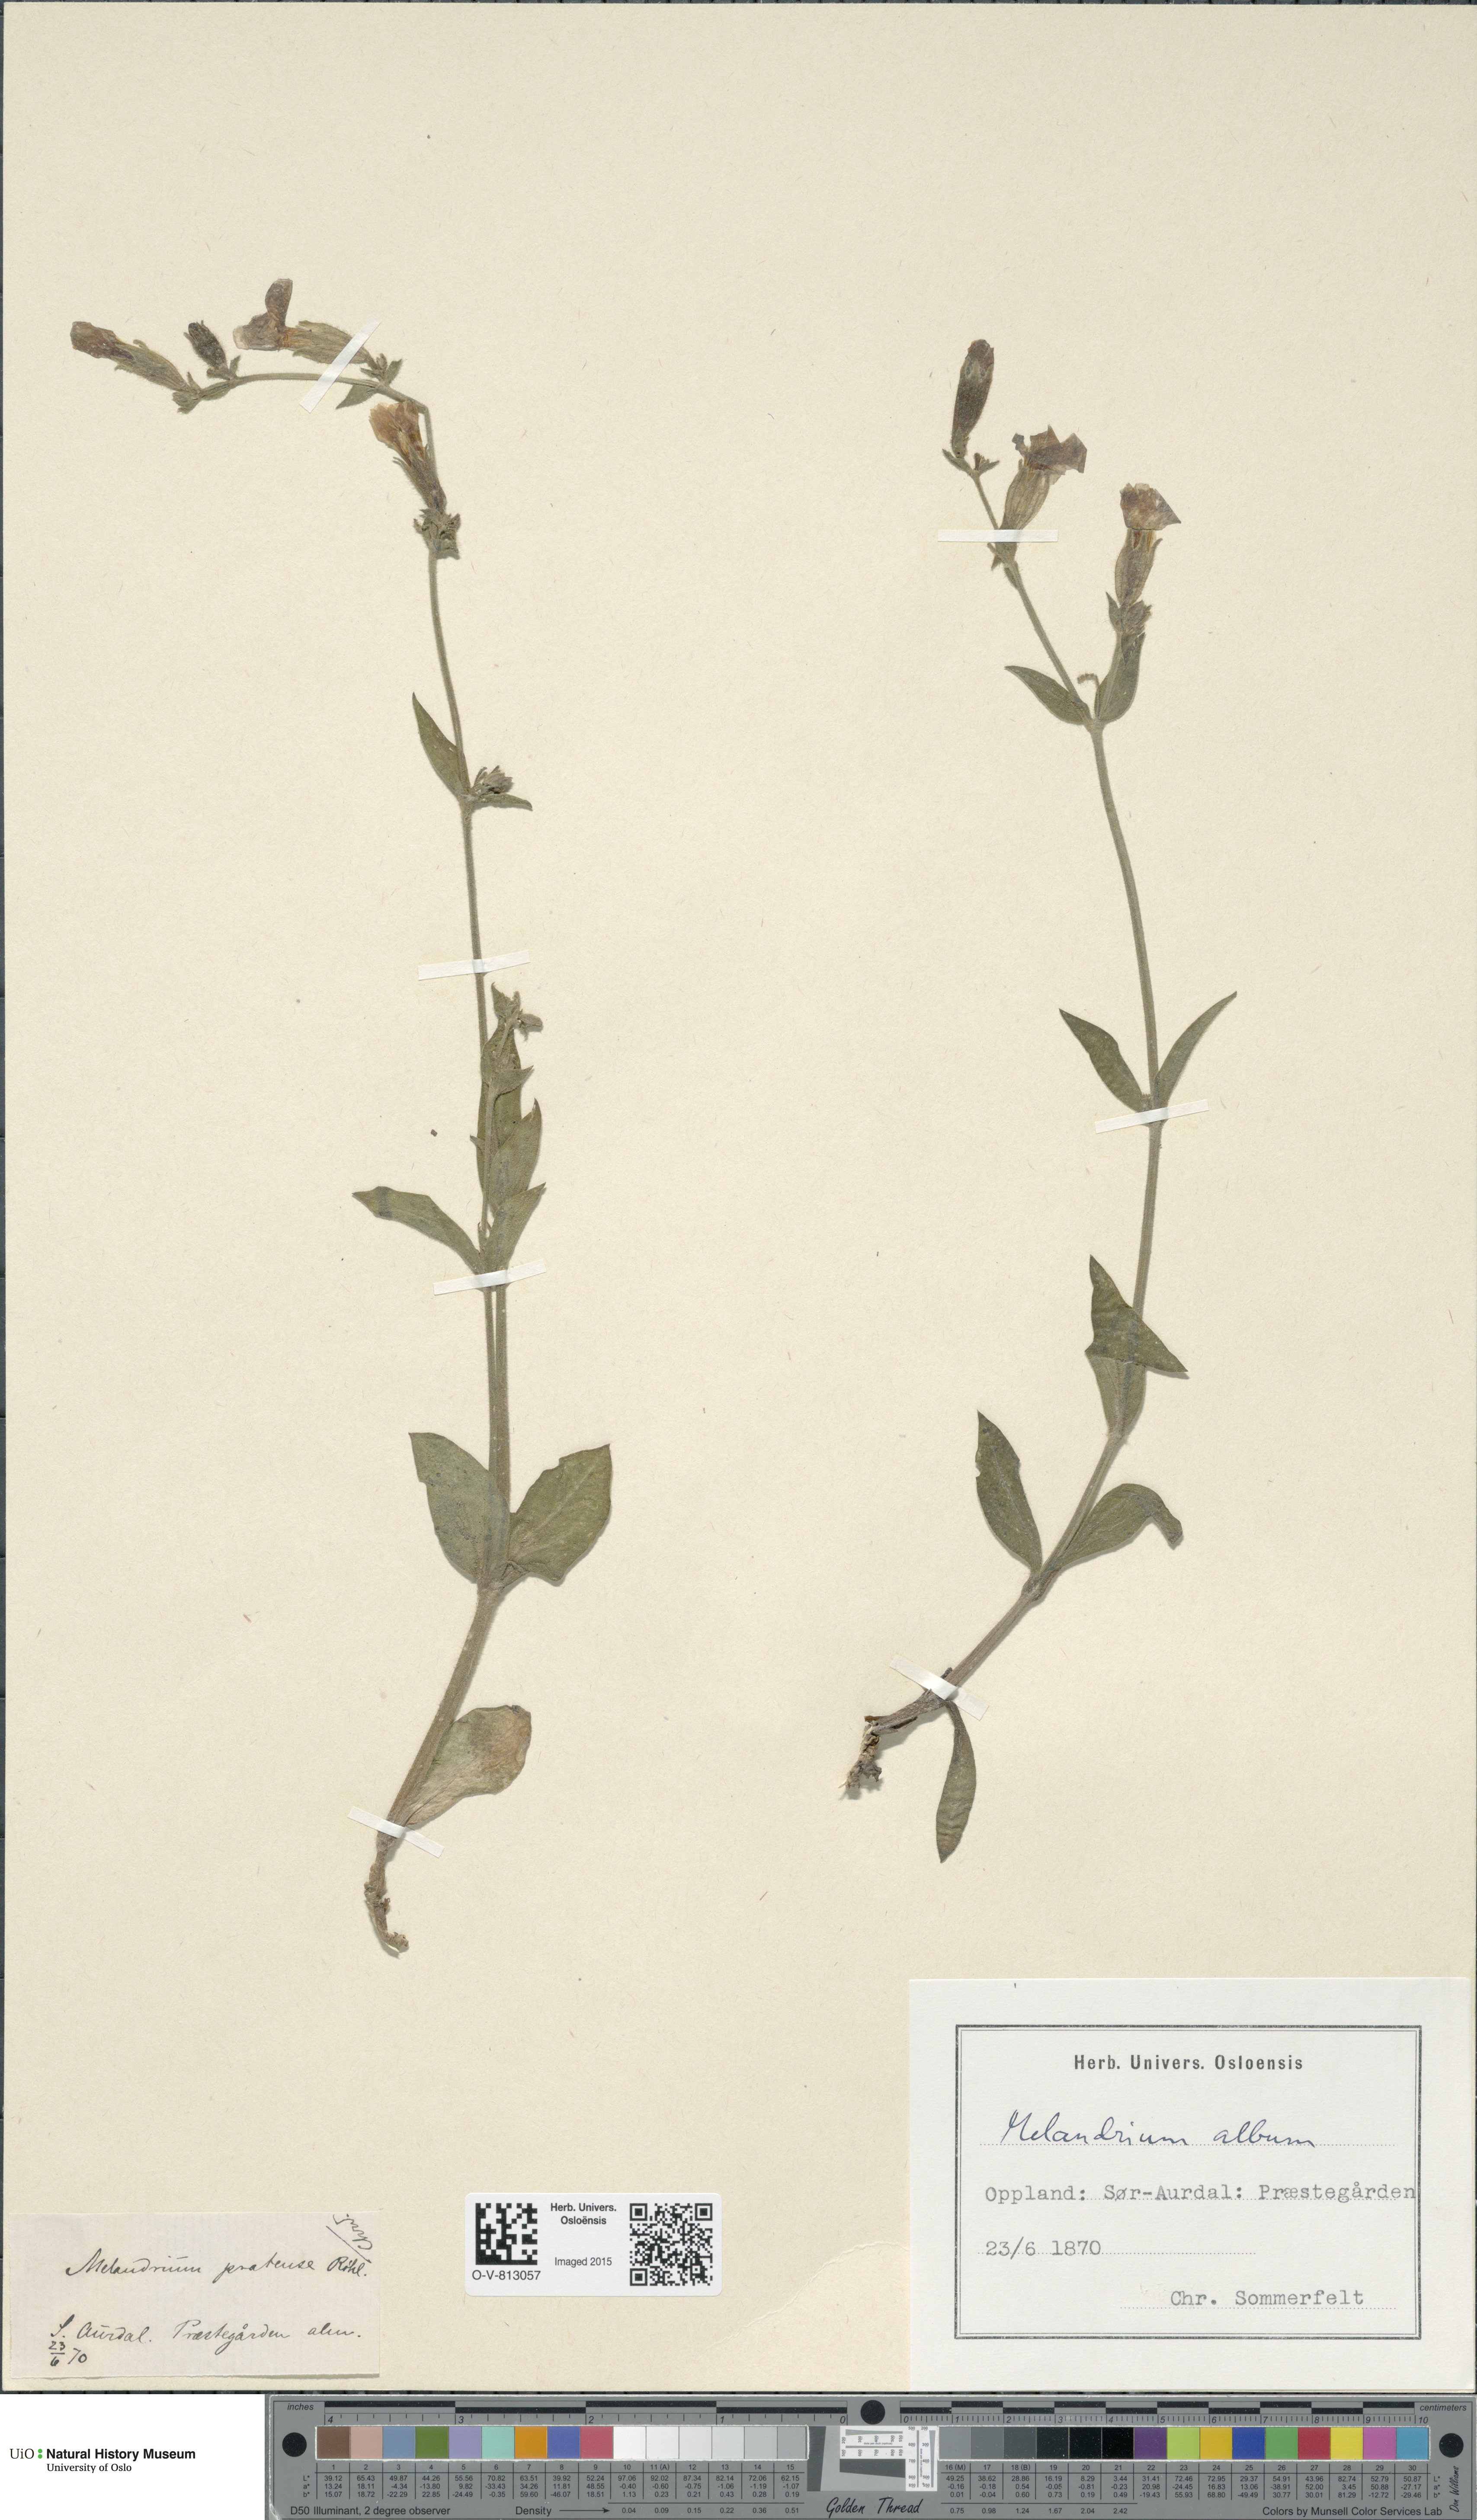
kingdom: Plantae
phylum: Tracheophyta
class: Magnoliopsida
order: Caryophyllales
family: Caryophyllaceae
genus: Silene
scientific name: Silene latifolia
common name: White campion
